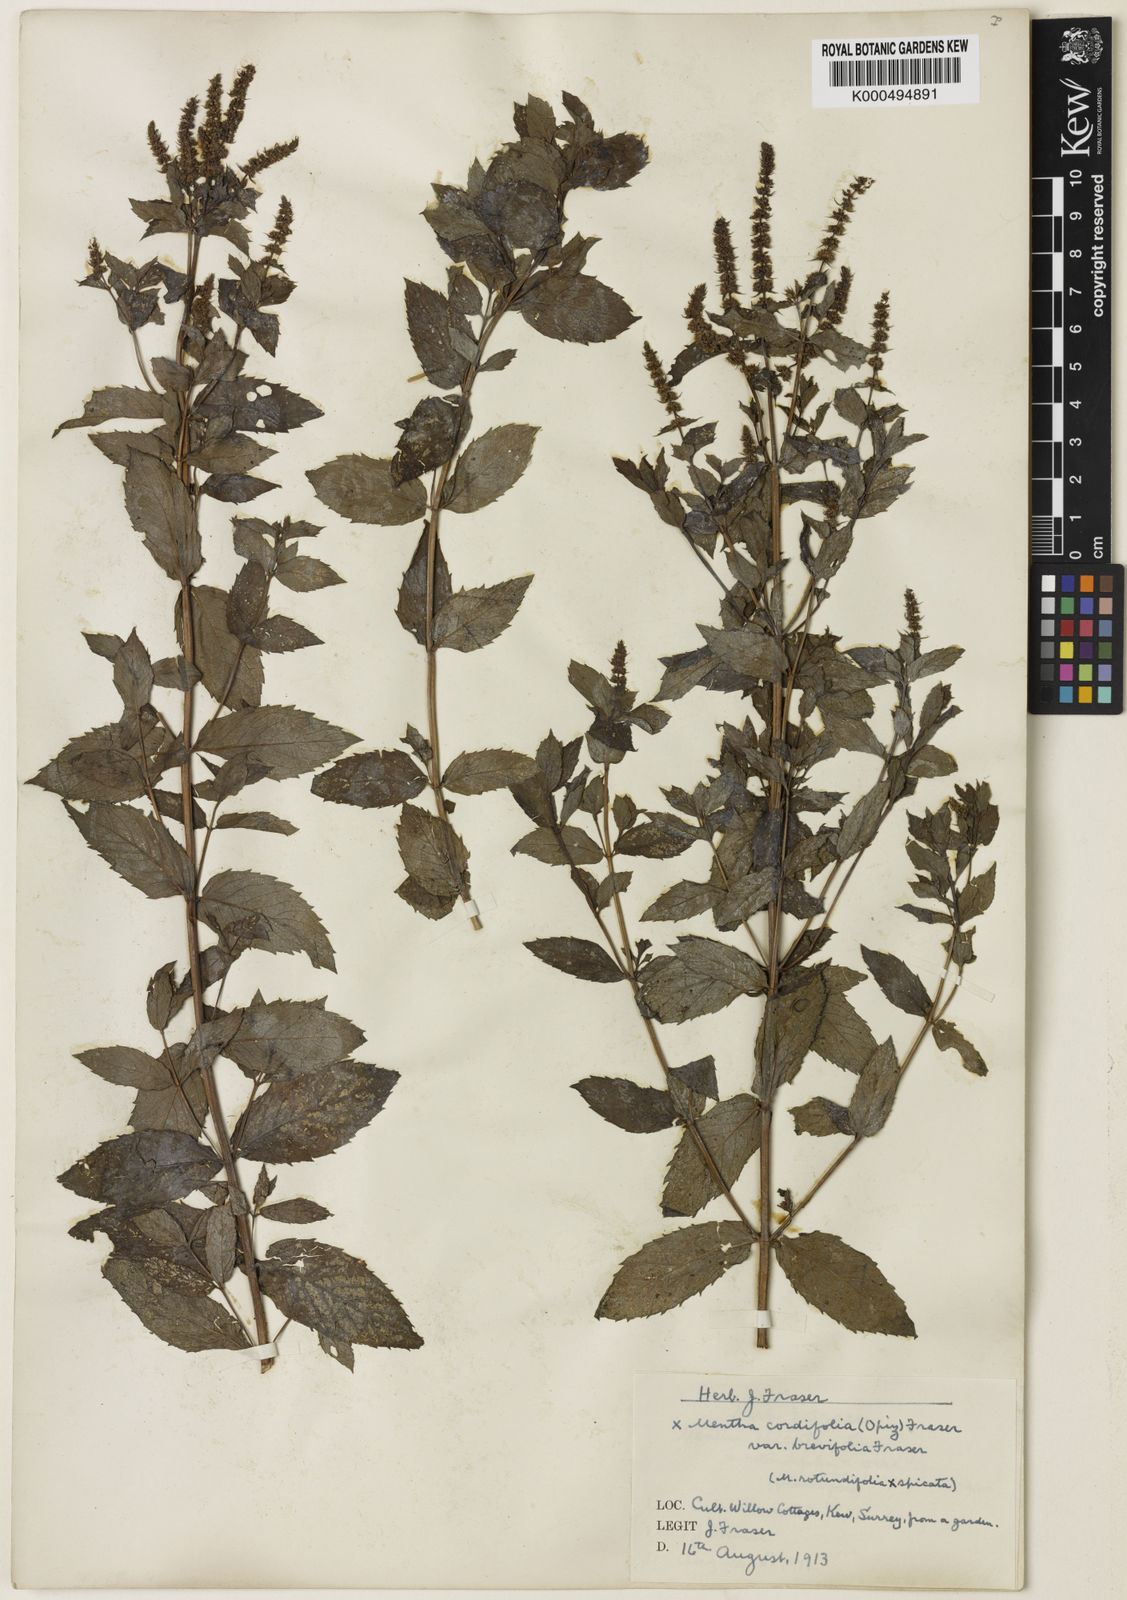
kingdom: Plantae
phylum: Tracheophyta
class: Magnoliopsida
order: Lamiales
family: Lamiaceae
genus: Mentha
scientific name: Mentha villosa
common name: Apple mint
